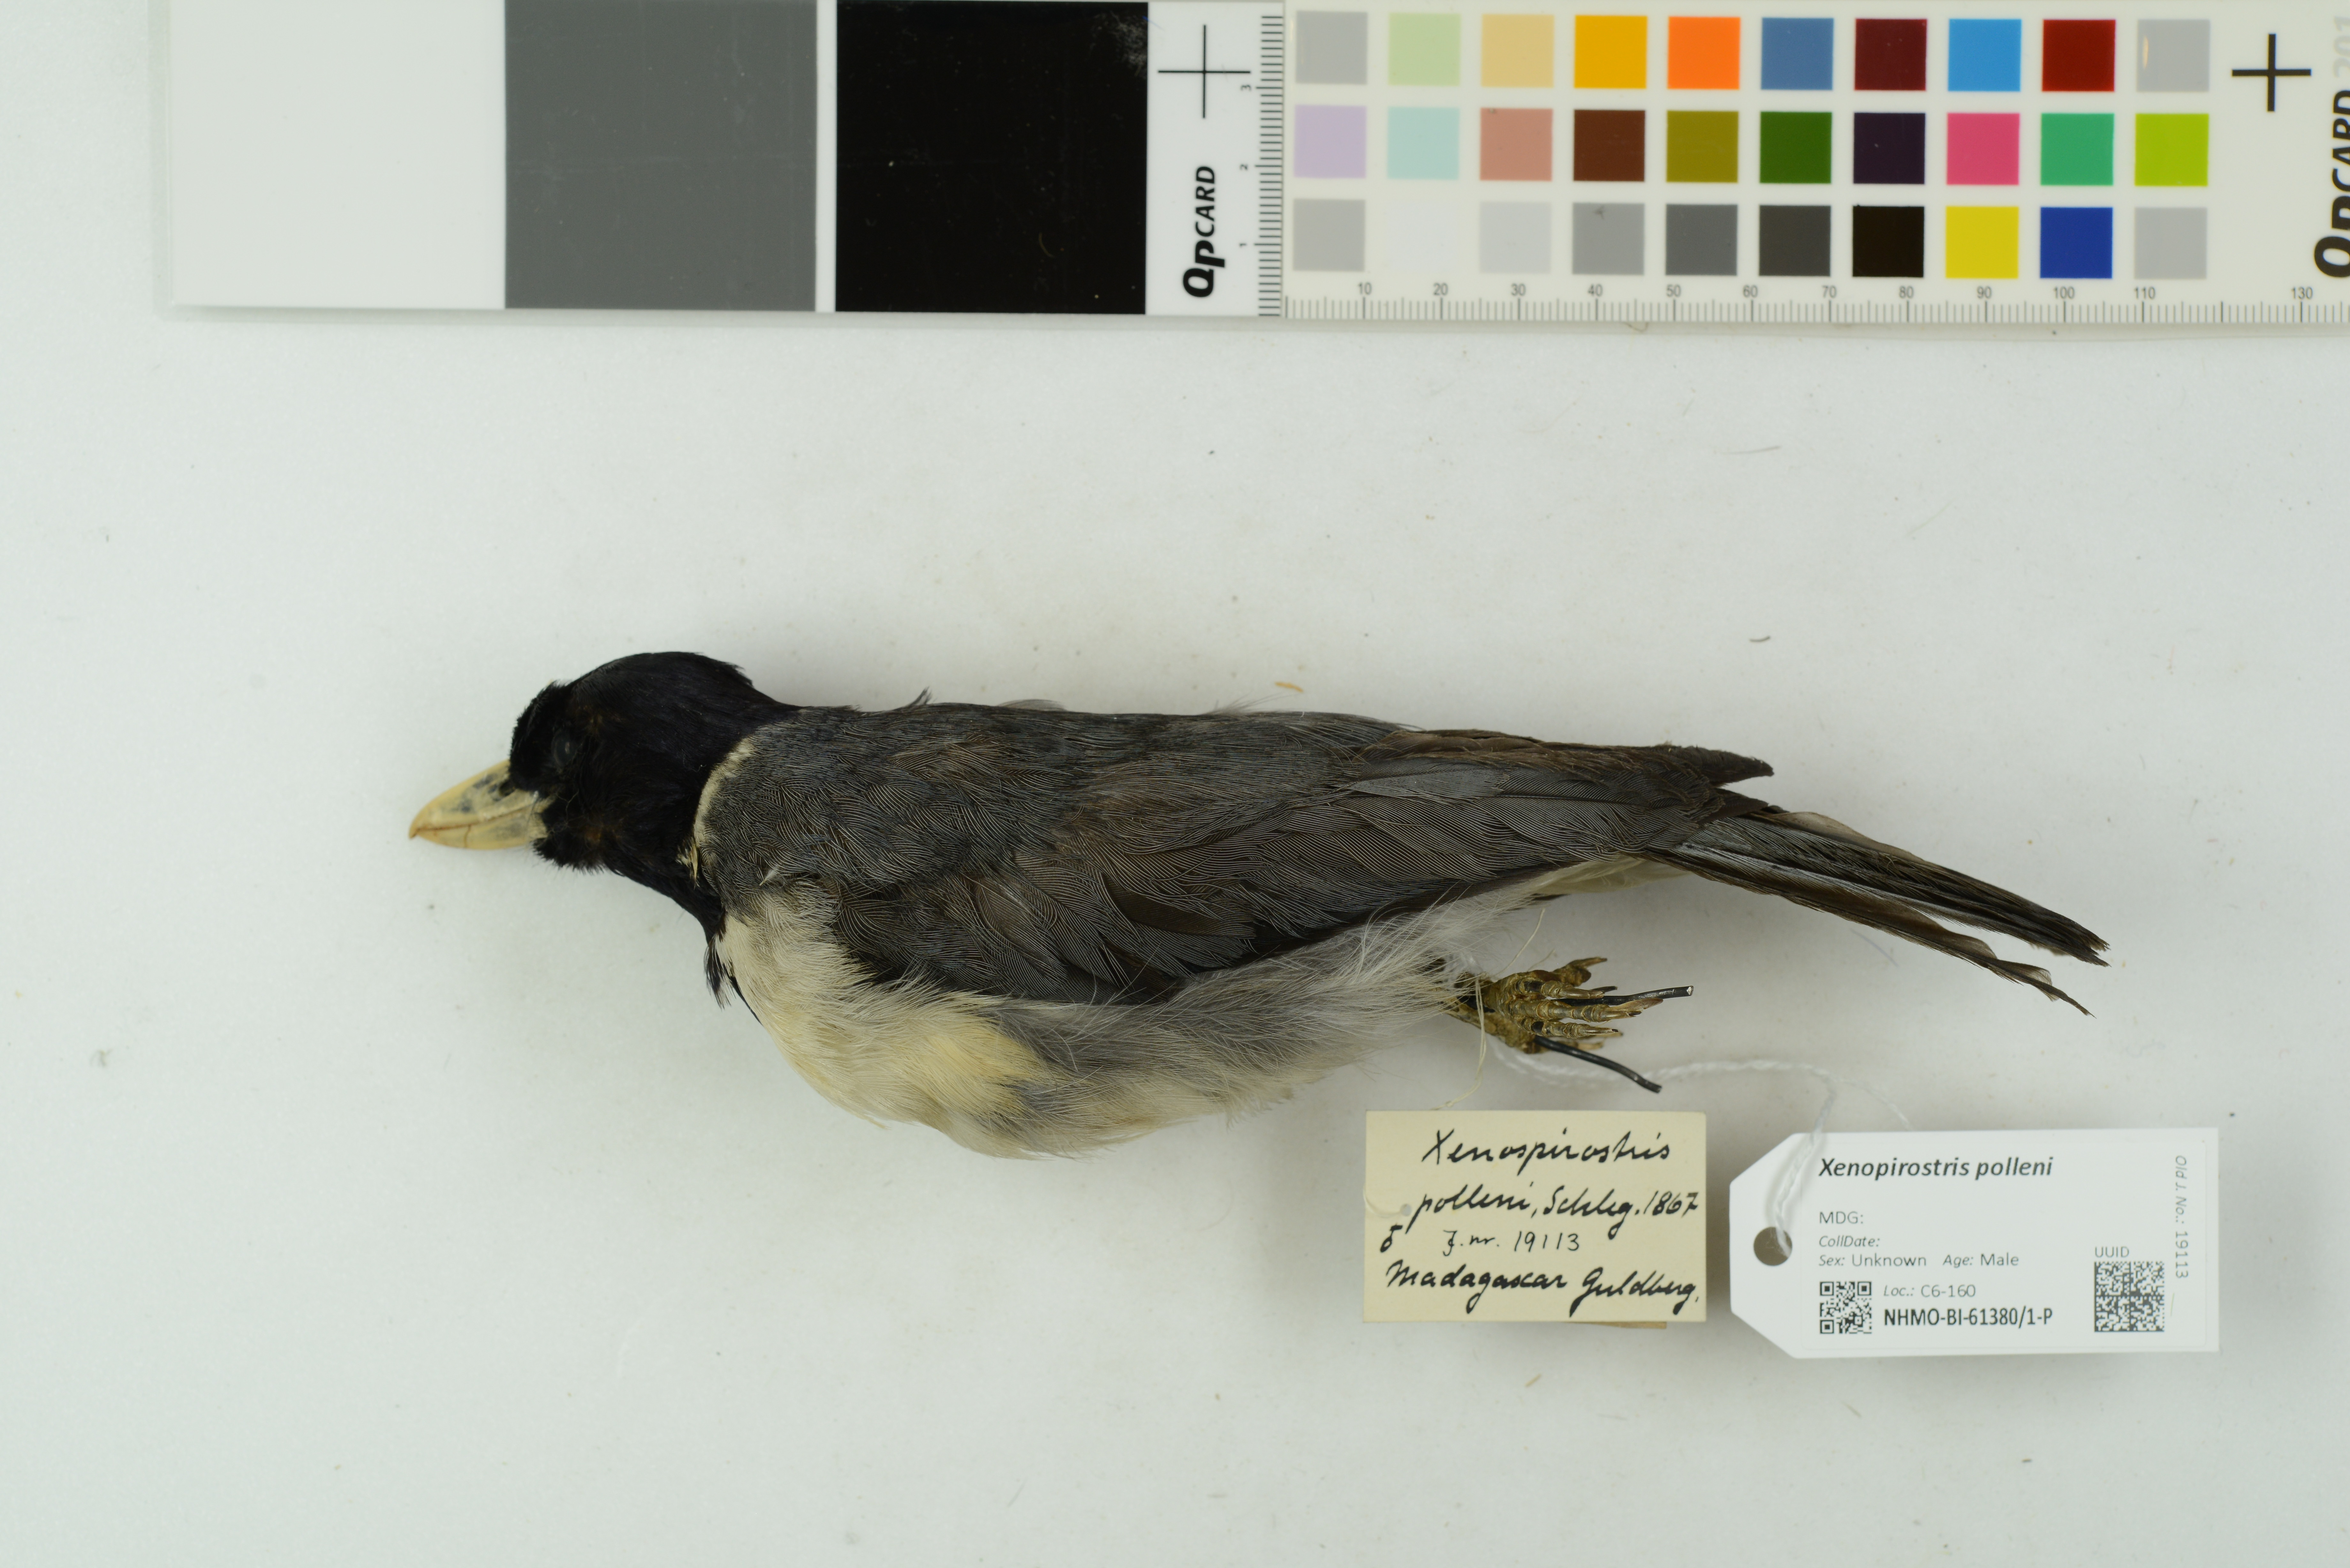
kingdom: Animalia
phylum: Chordata
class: Aves
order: Passeriformes
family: Vangidae
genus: Xenopirostris
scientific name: Xenopirostris polleni
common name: Pollen's vanga
